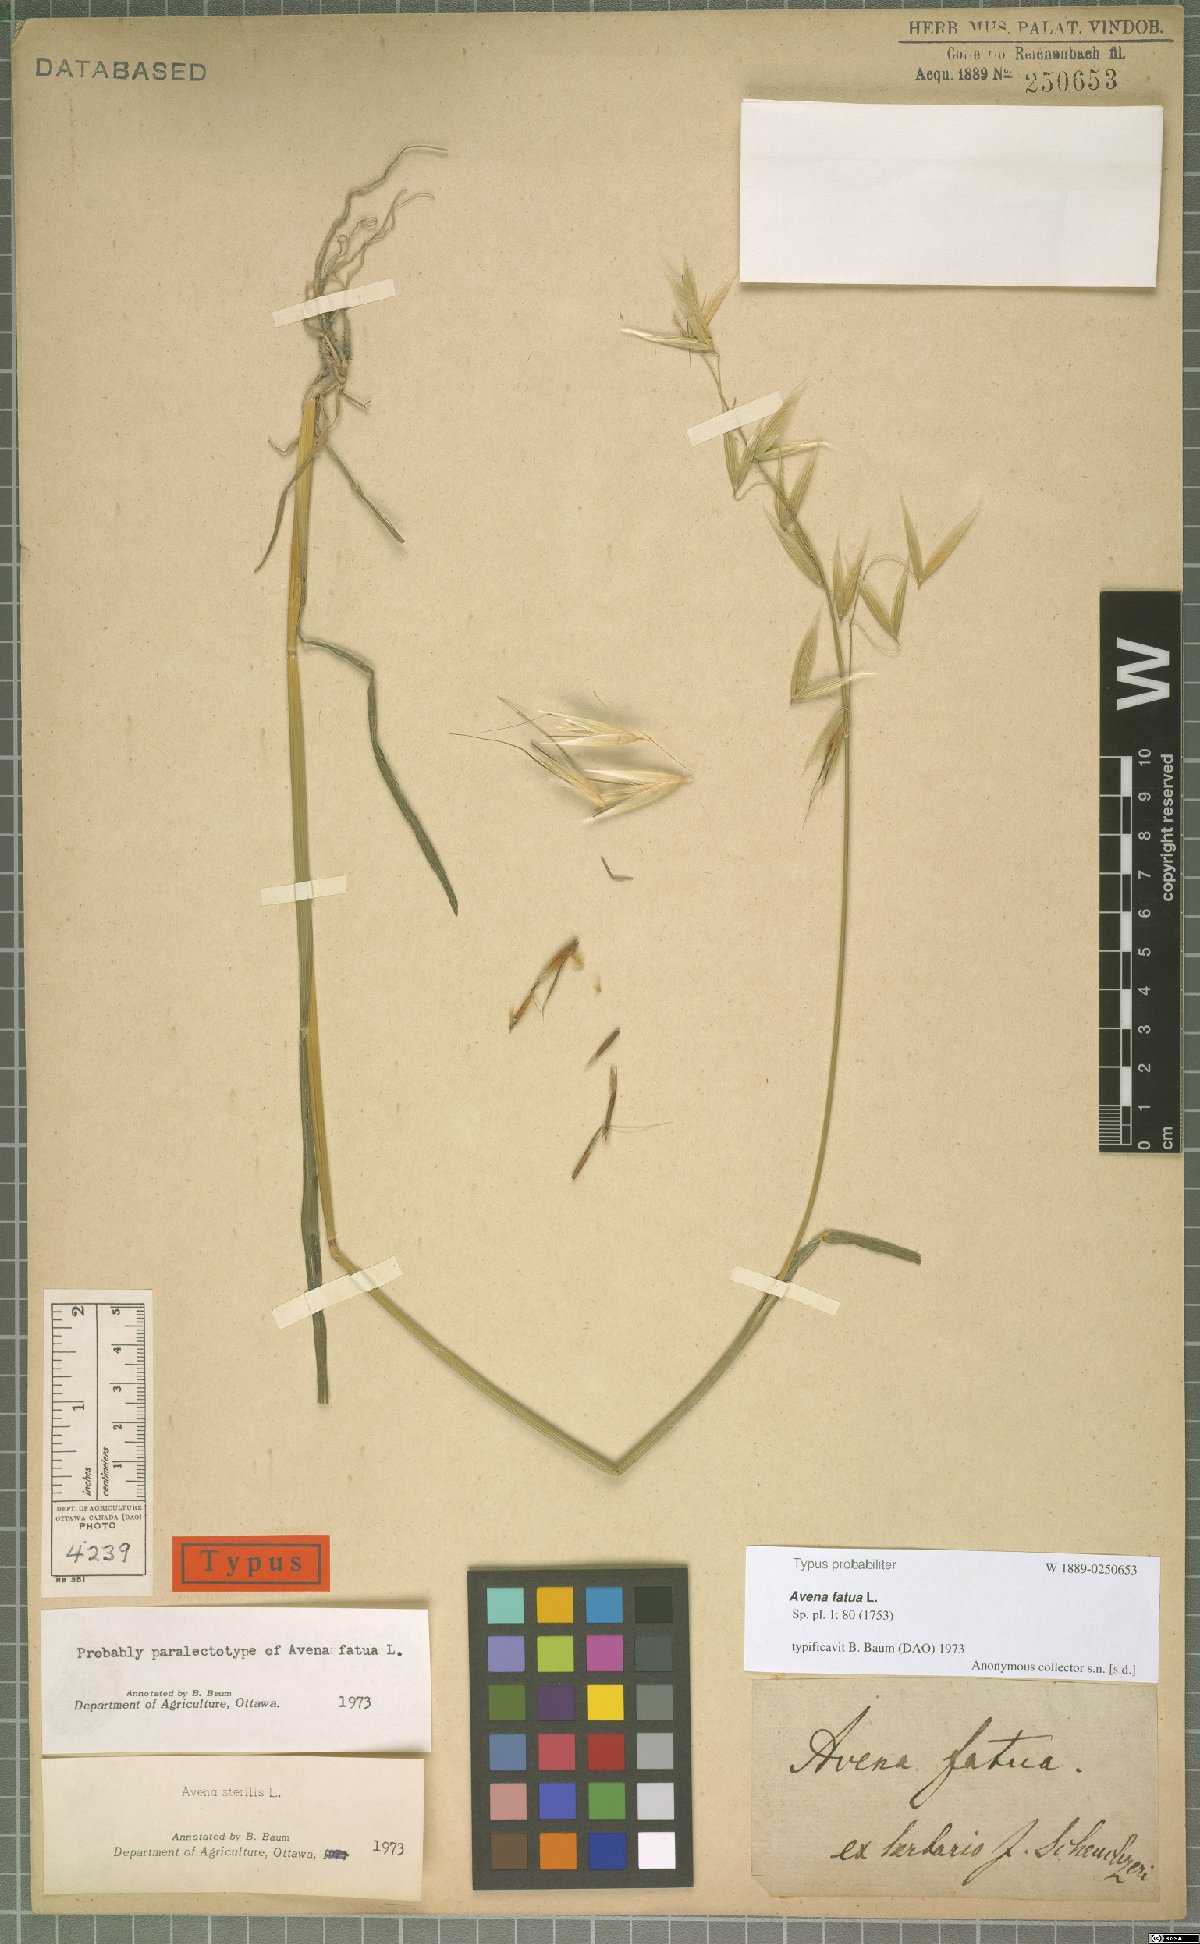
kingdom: Plantae
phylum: Tracheophyta
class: Liliopsida
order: Poales
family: Poaceae
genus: Avena
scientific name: Avena fatua
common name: Wild oat
